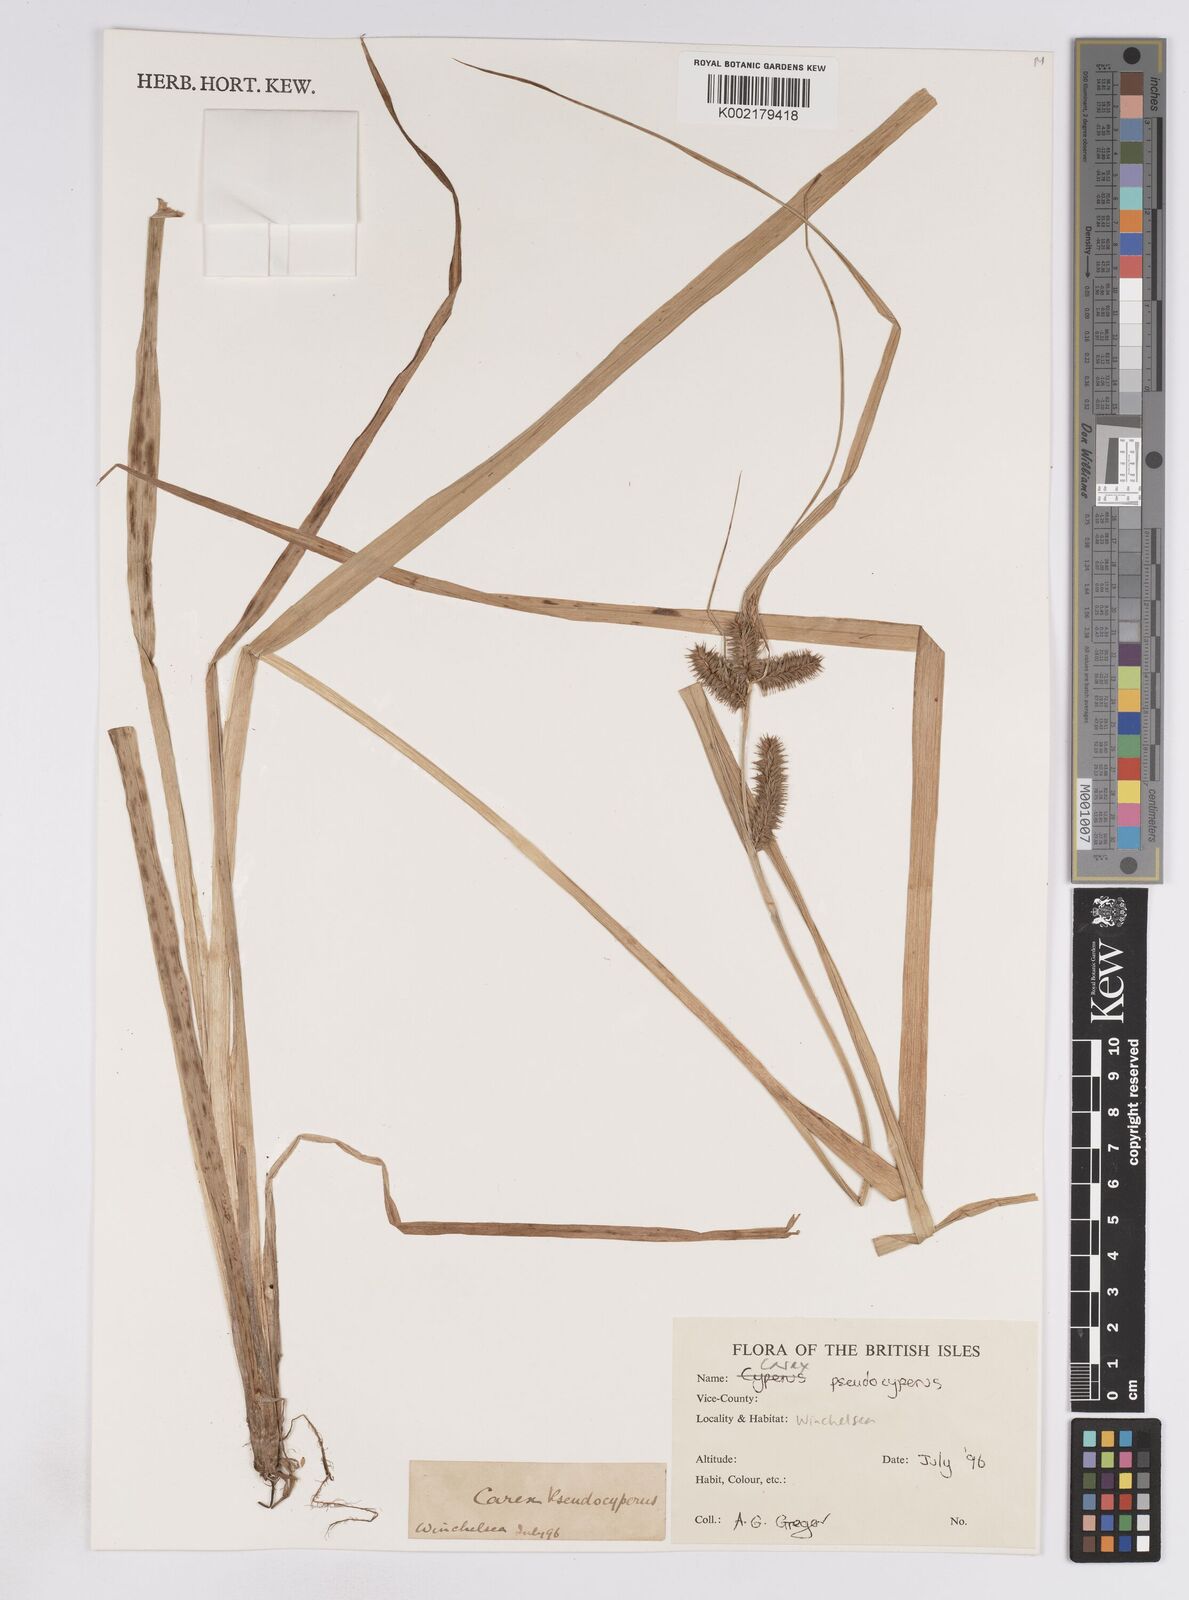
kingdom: Plantae
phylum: Tracheophyta
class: Liliopsida
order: Poales
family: Cyperaceae
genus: Carex
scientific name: Carex pseudocyperus
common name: Cyperus sedge
